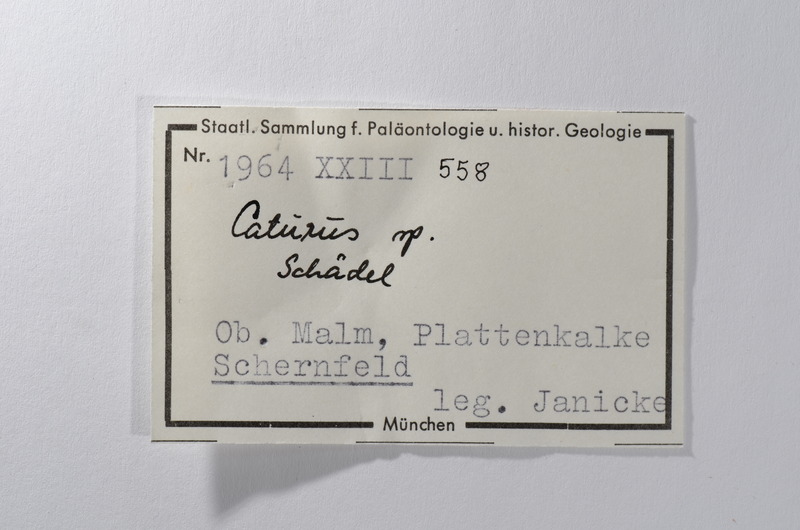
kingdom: Animalia
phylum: Chordata
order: Amiiformes
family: Caturidae
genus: Caturus
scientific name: Caturus
